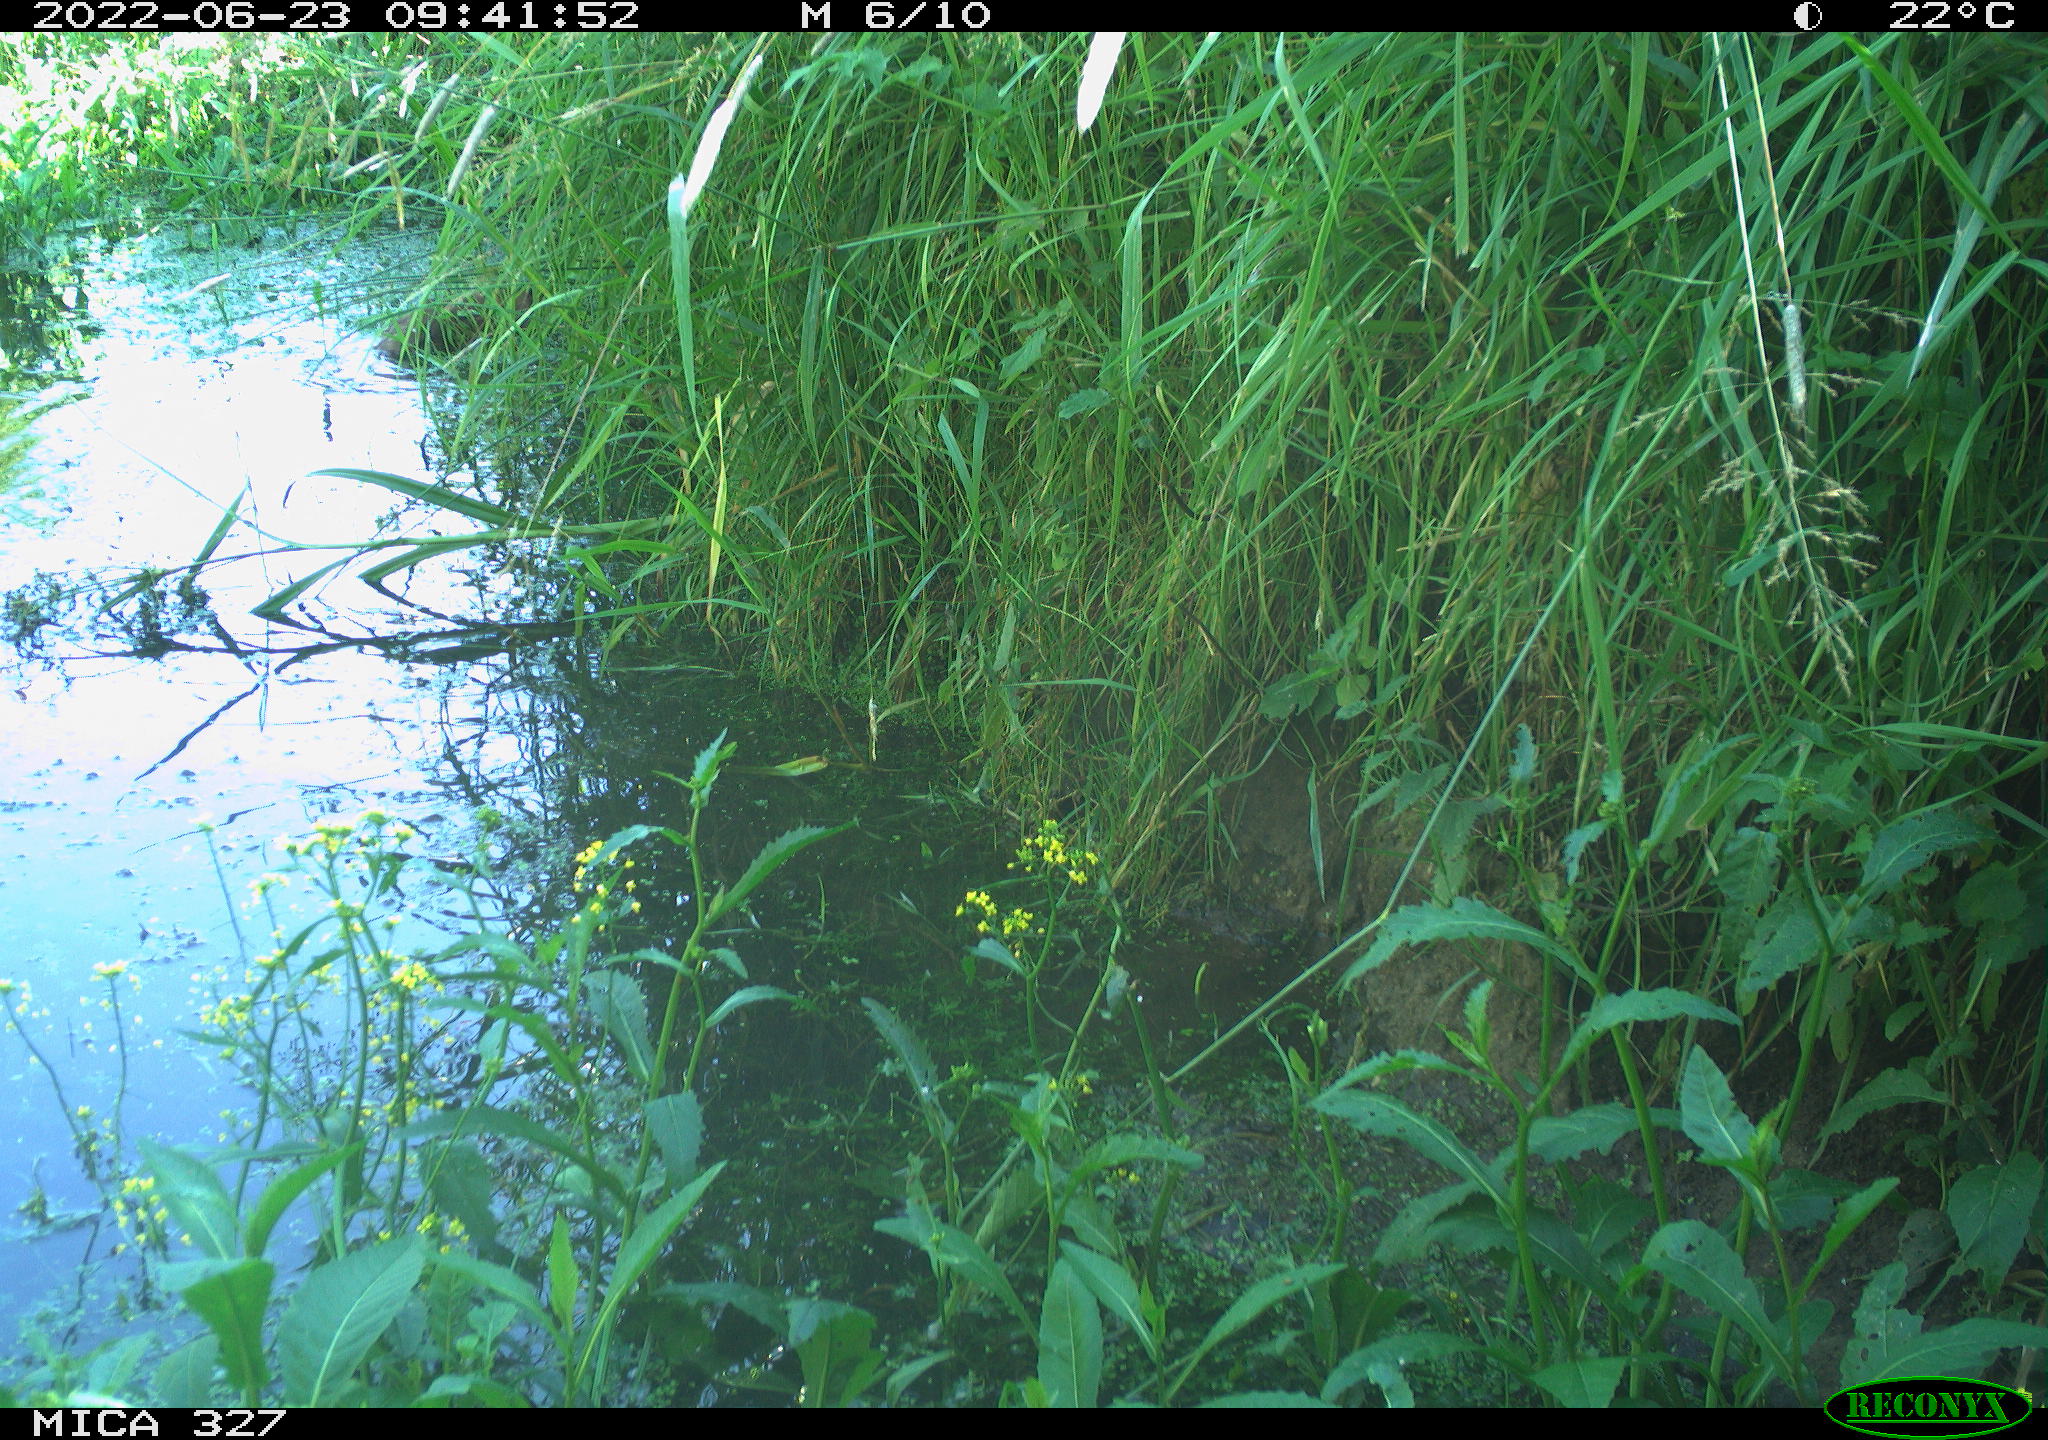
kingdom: Animalia
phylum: Chordata
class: Mammalia
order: Rodentia
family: Cricetidae
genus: Ondatra
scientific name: Ondatra zibethicus
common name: Muskrat
